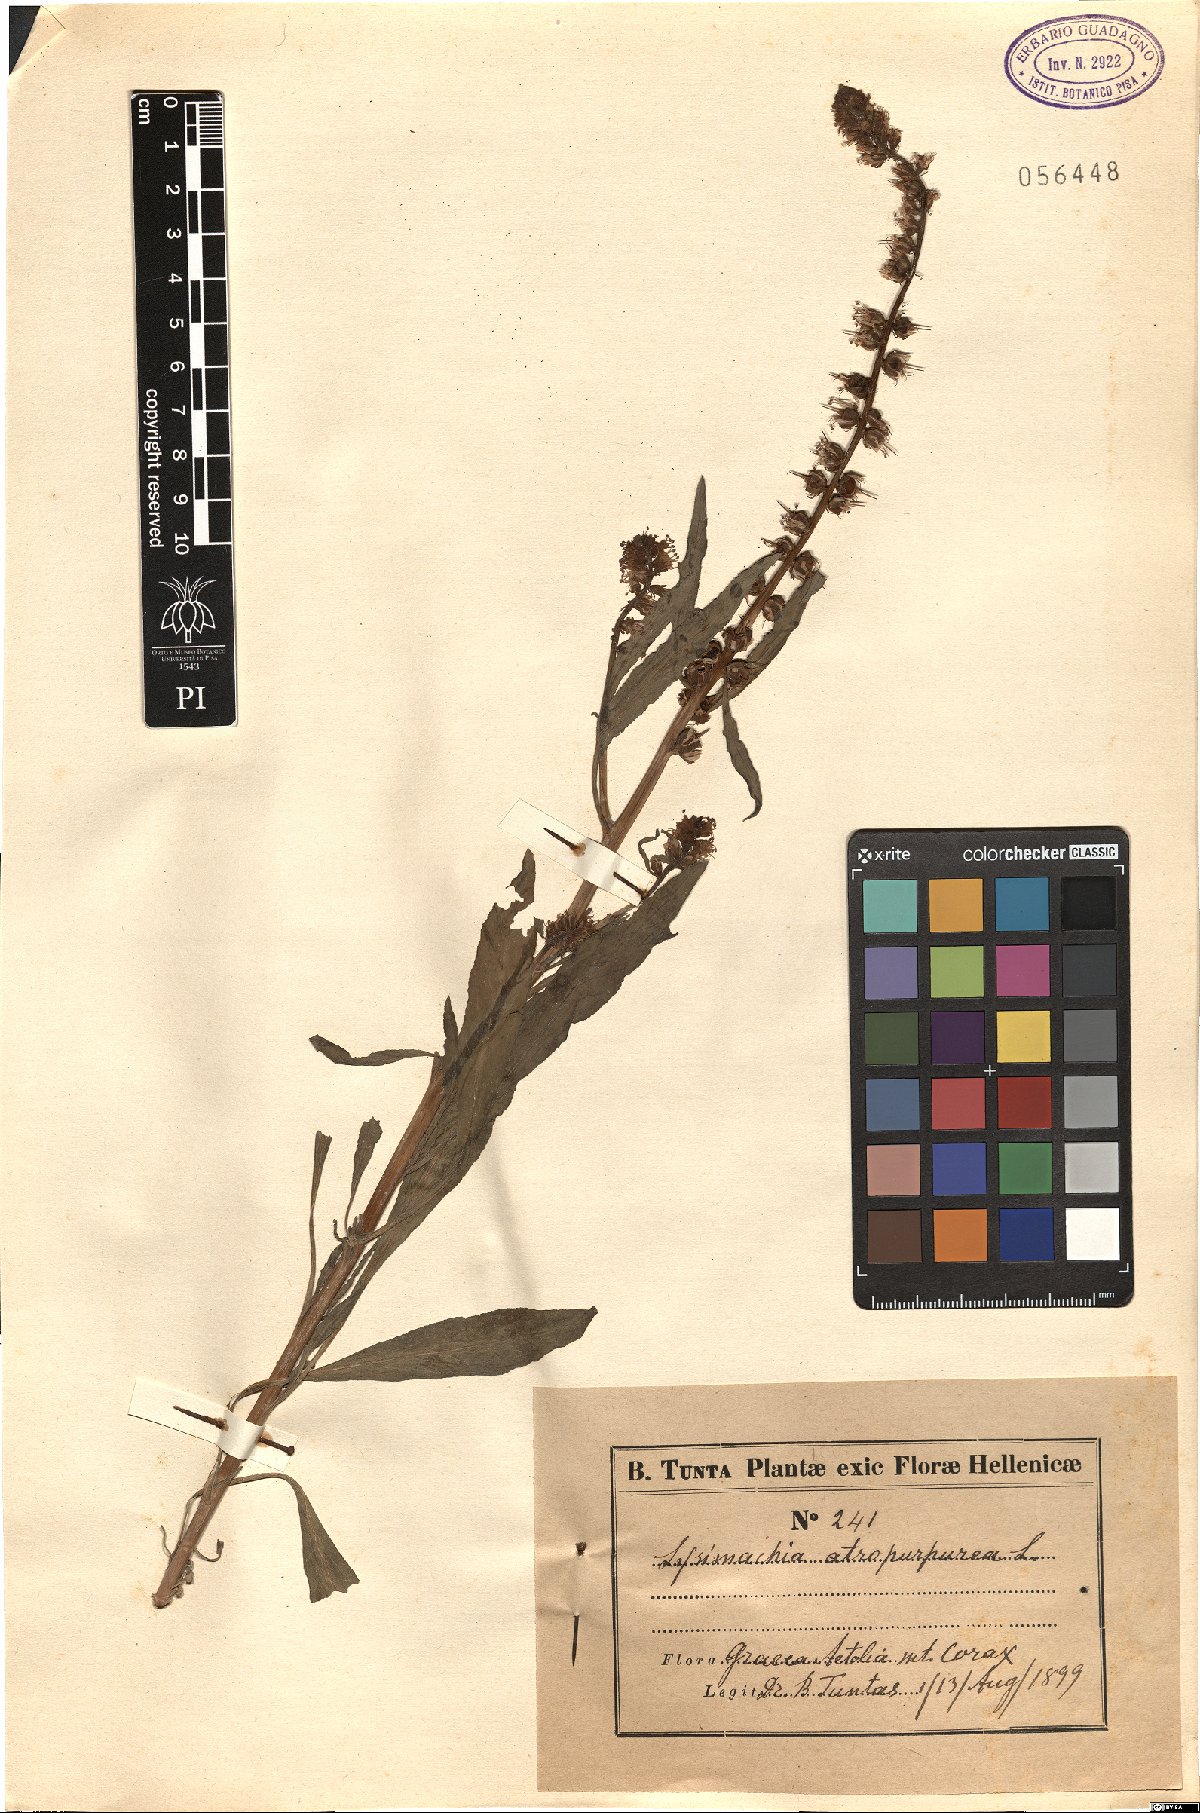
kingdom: Plantae
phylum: Tracheophyta
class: Magnoliopsida
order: Ericales
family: Primulaceae
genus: Lysimachia
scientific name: Lysimachia atropurpurea
